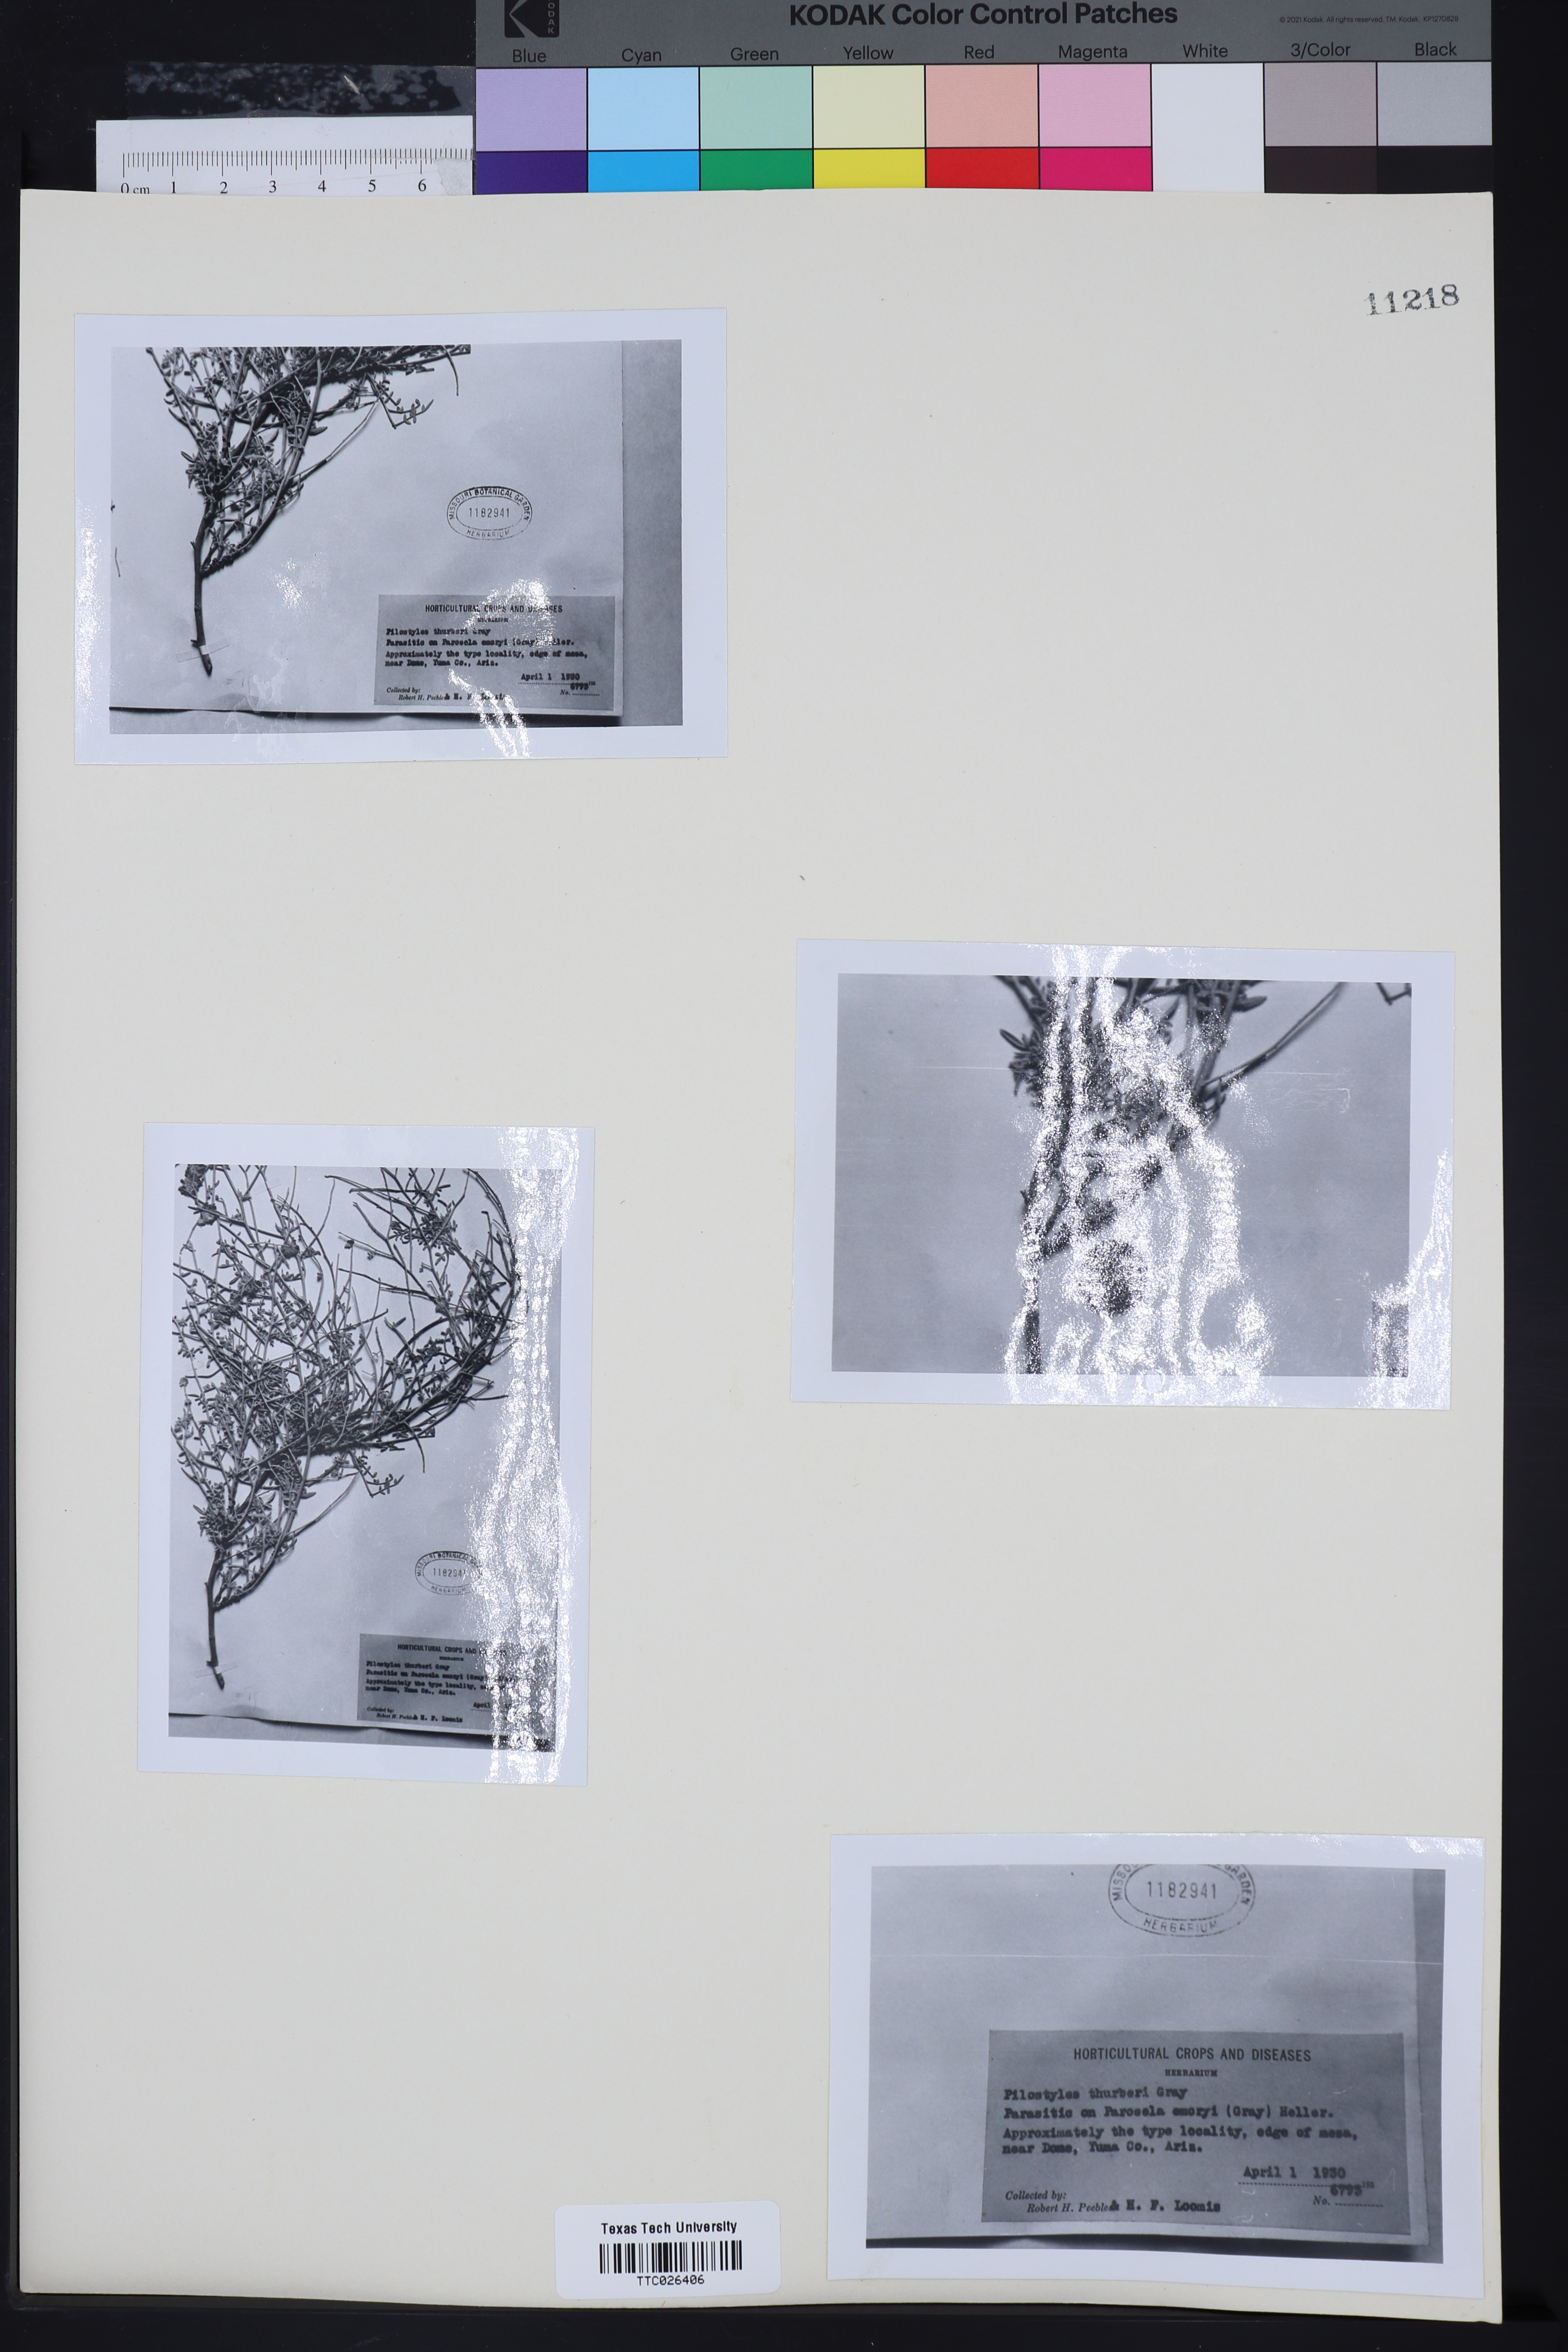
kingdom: Plantae
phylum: Tracheophyta
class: Magnoliopsida
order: Cucurbitales
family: Apodanthaceae
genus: Pilostyles
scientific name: Pilostyles thurberi
